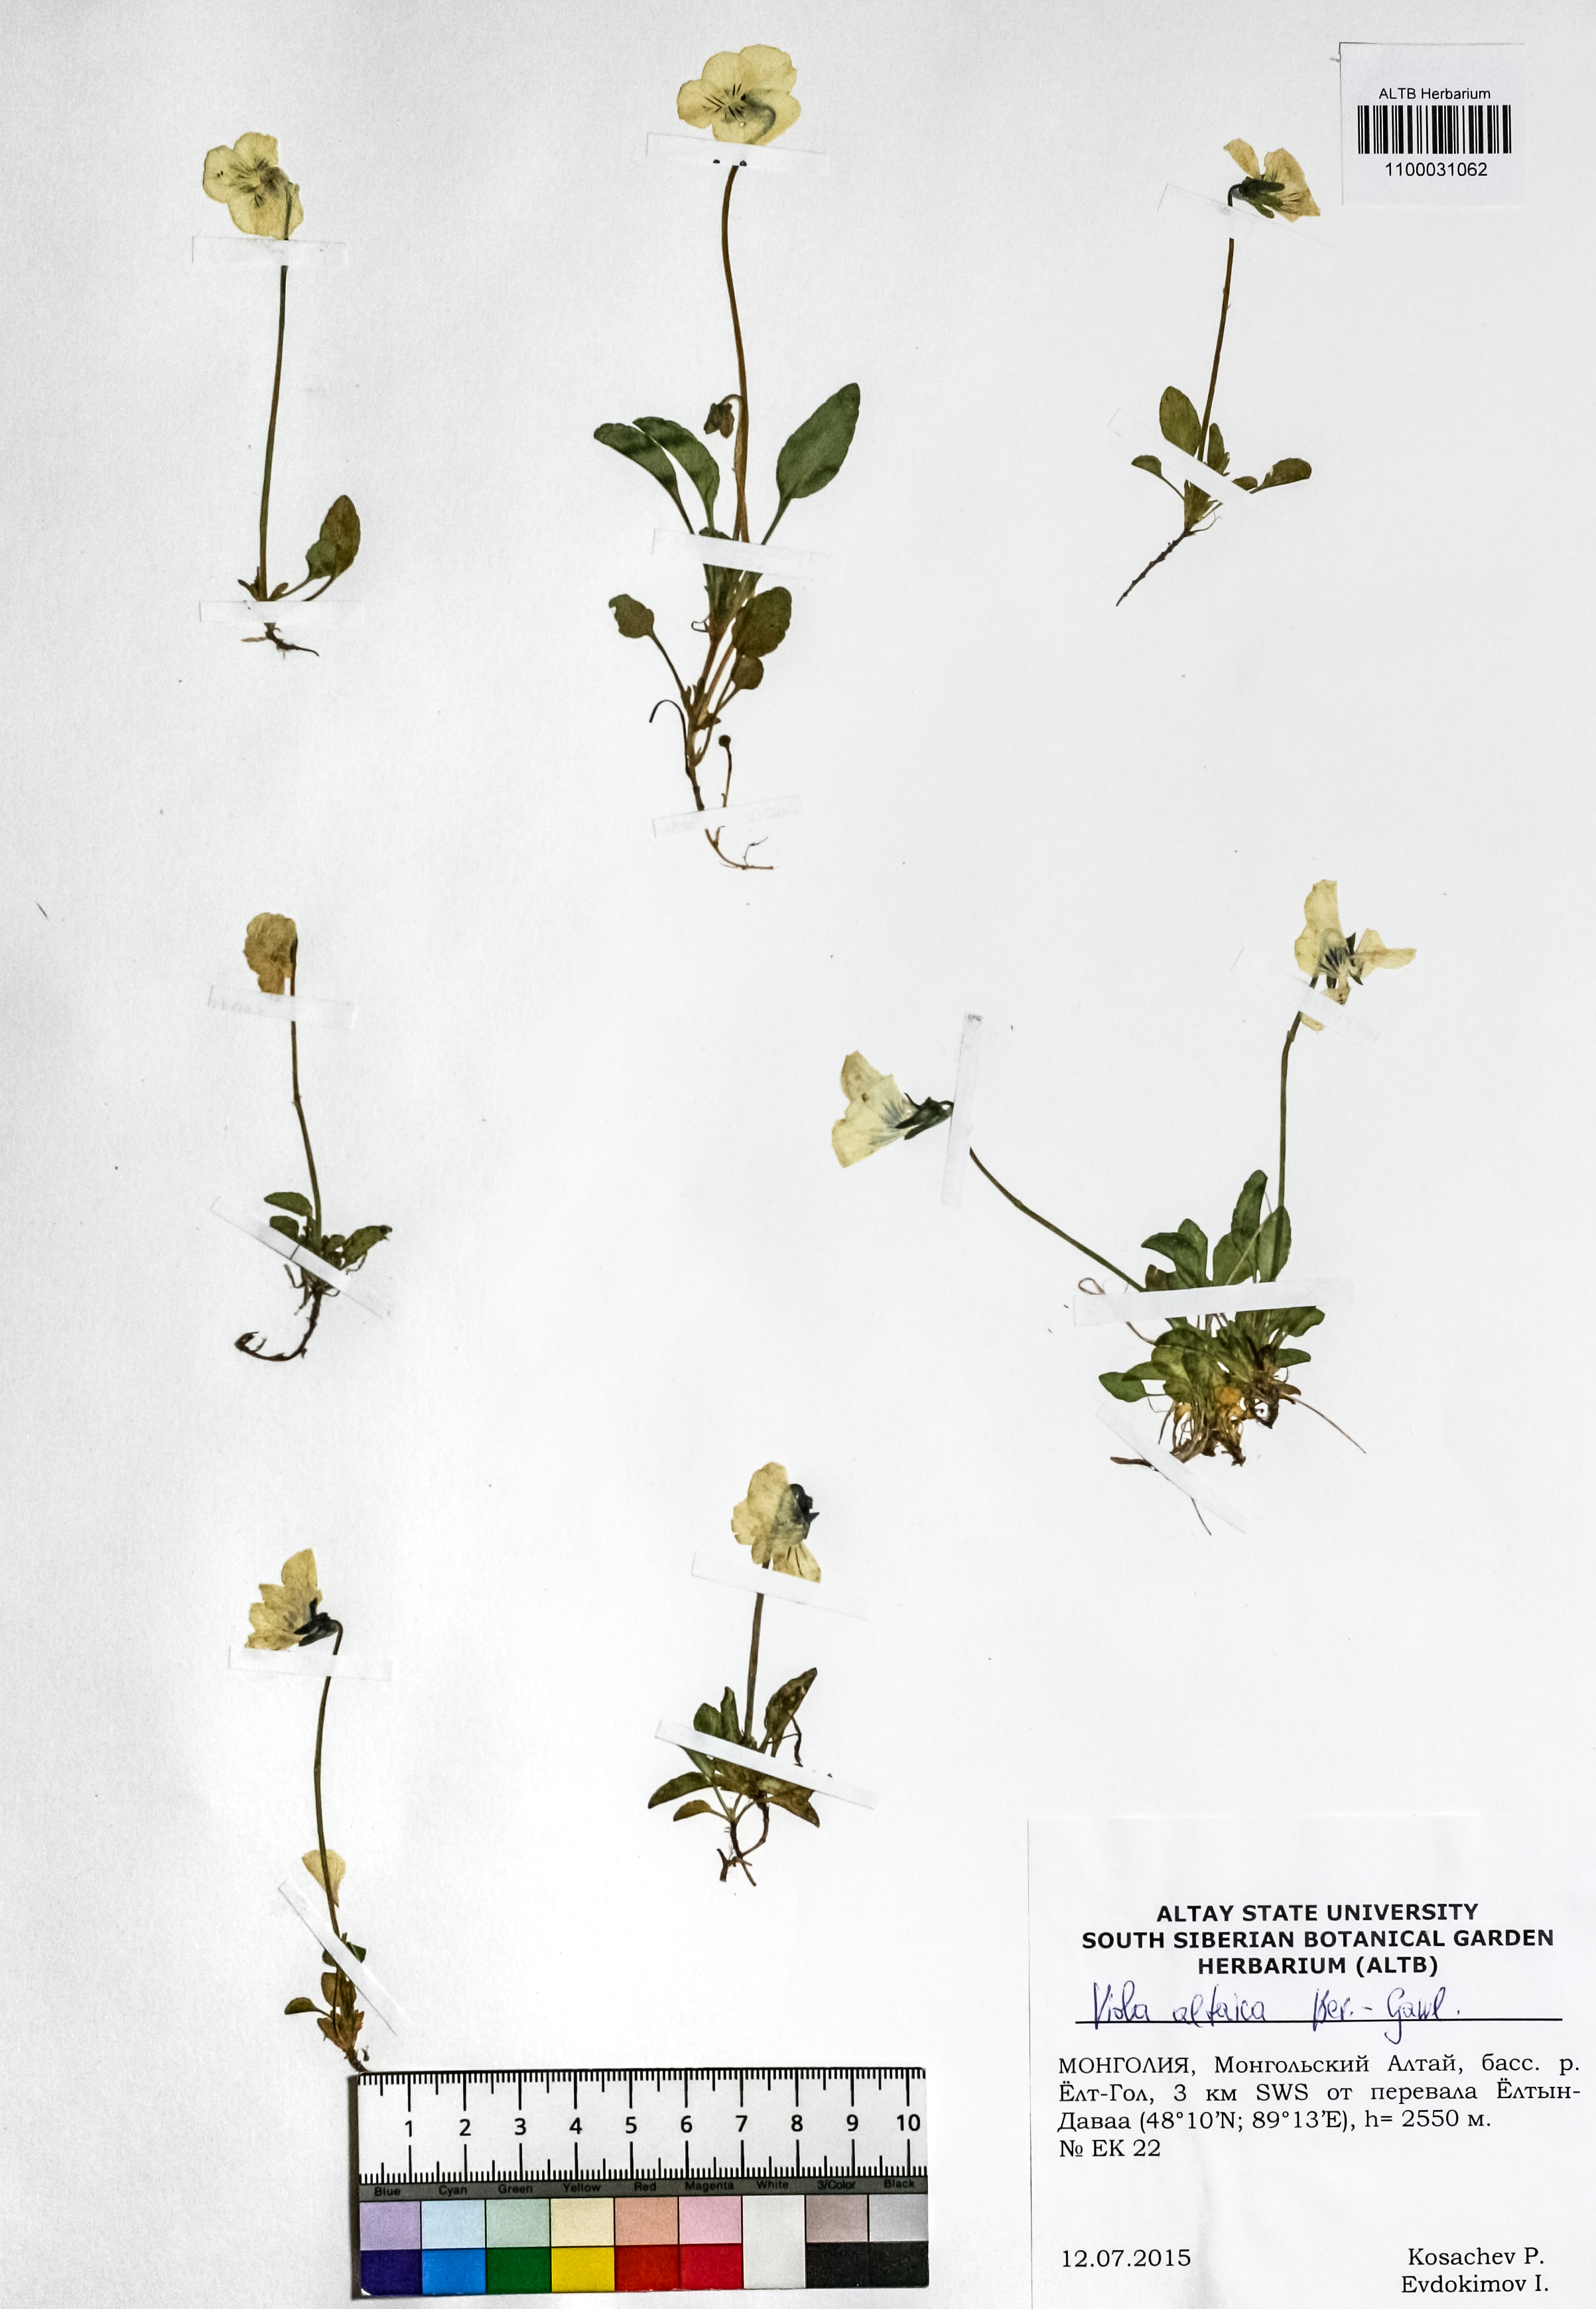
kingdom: Plantae
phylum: Tracheophyta
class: Magnoliopsida
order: Malpighiales
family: Violaceae
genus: Viola
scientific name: Viola altaica
